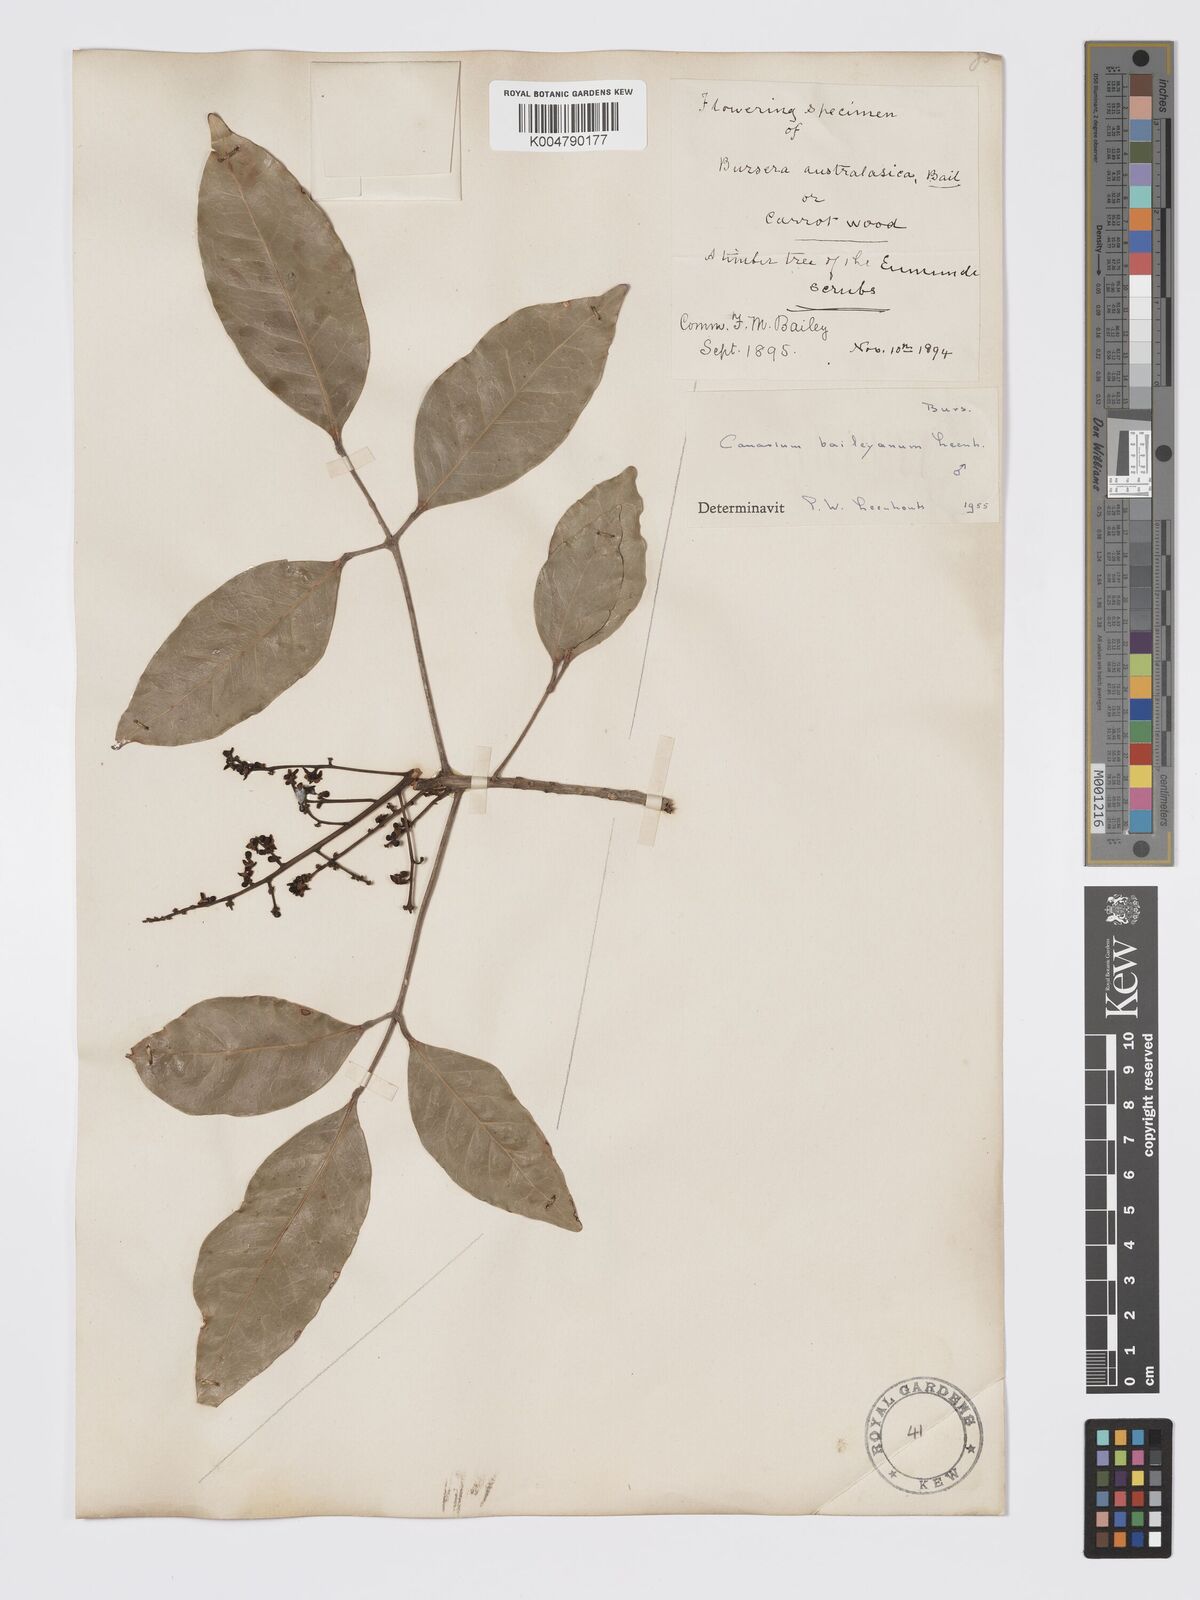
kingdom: Plantae
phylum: Tracheophyta
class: Magnoliopsida
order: Sapindales
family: Burseraceae
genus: Canarium
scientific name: Canarium australasicum
